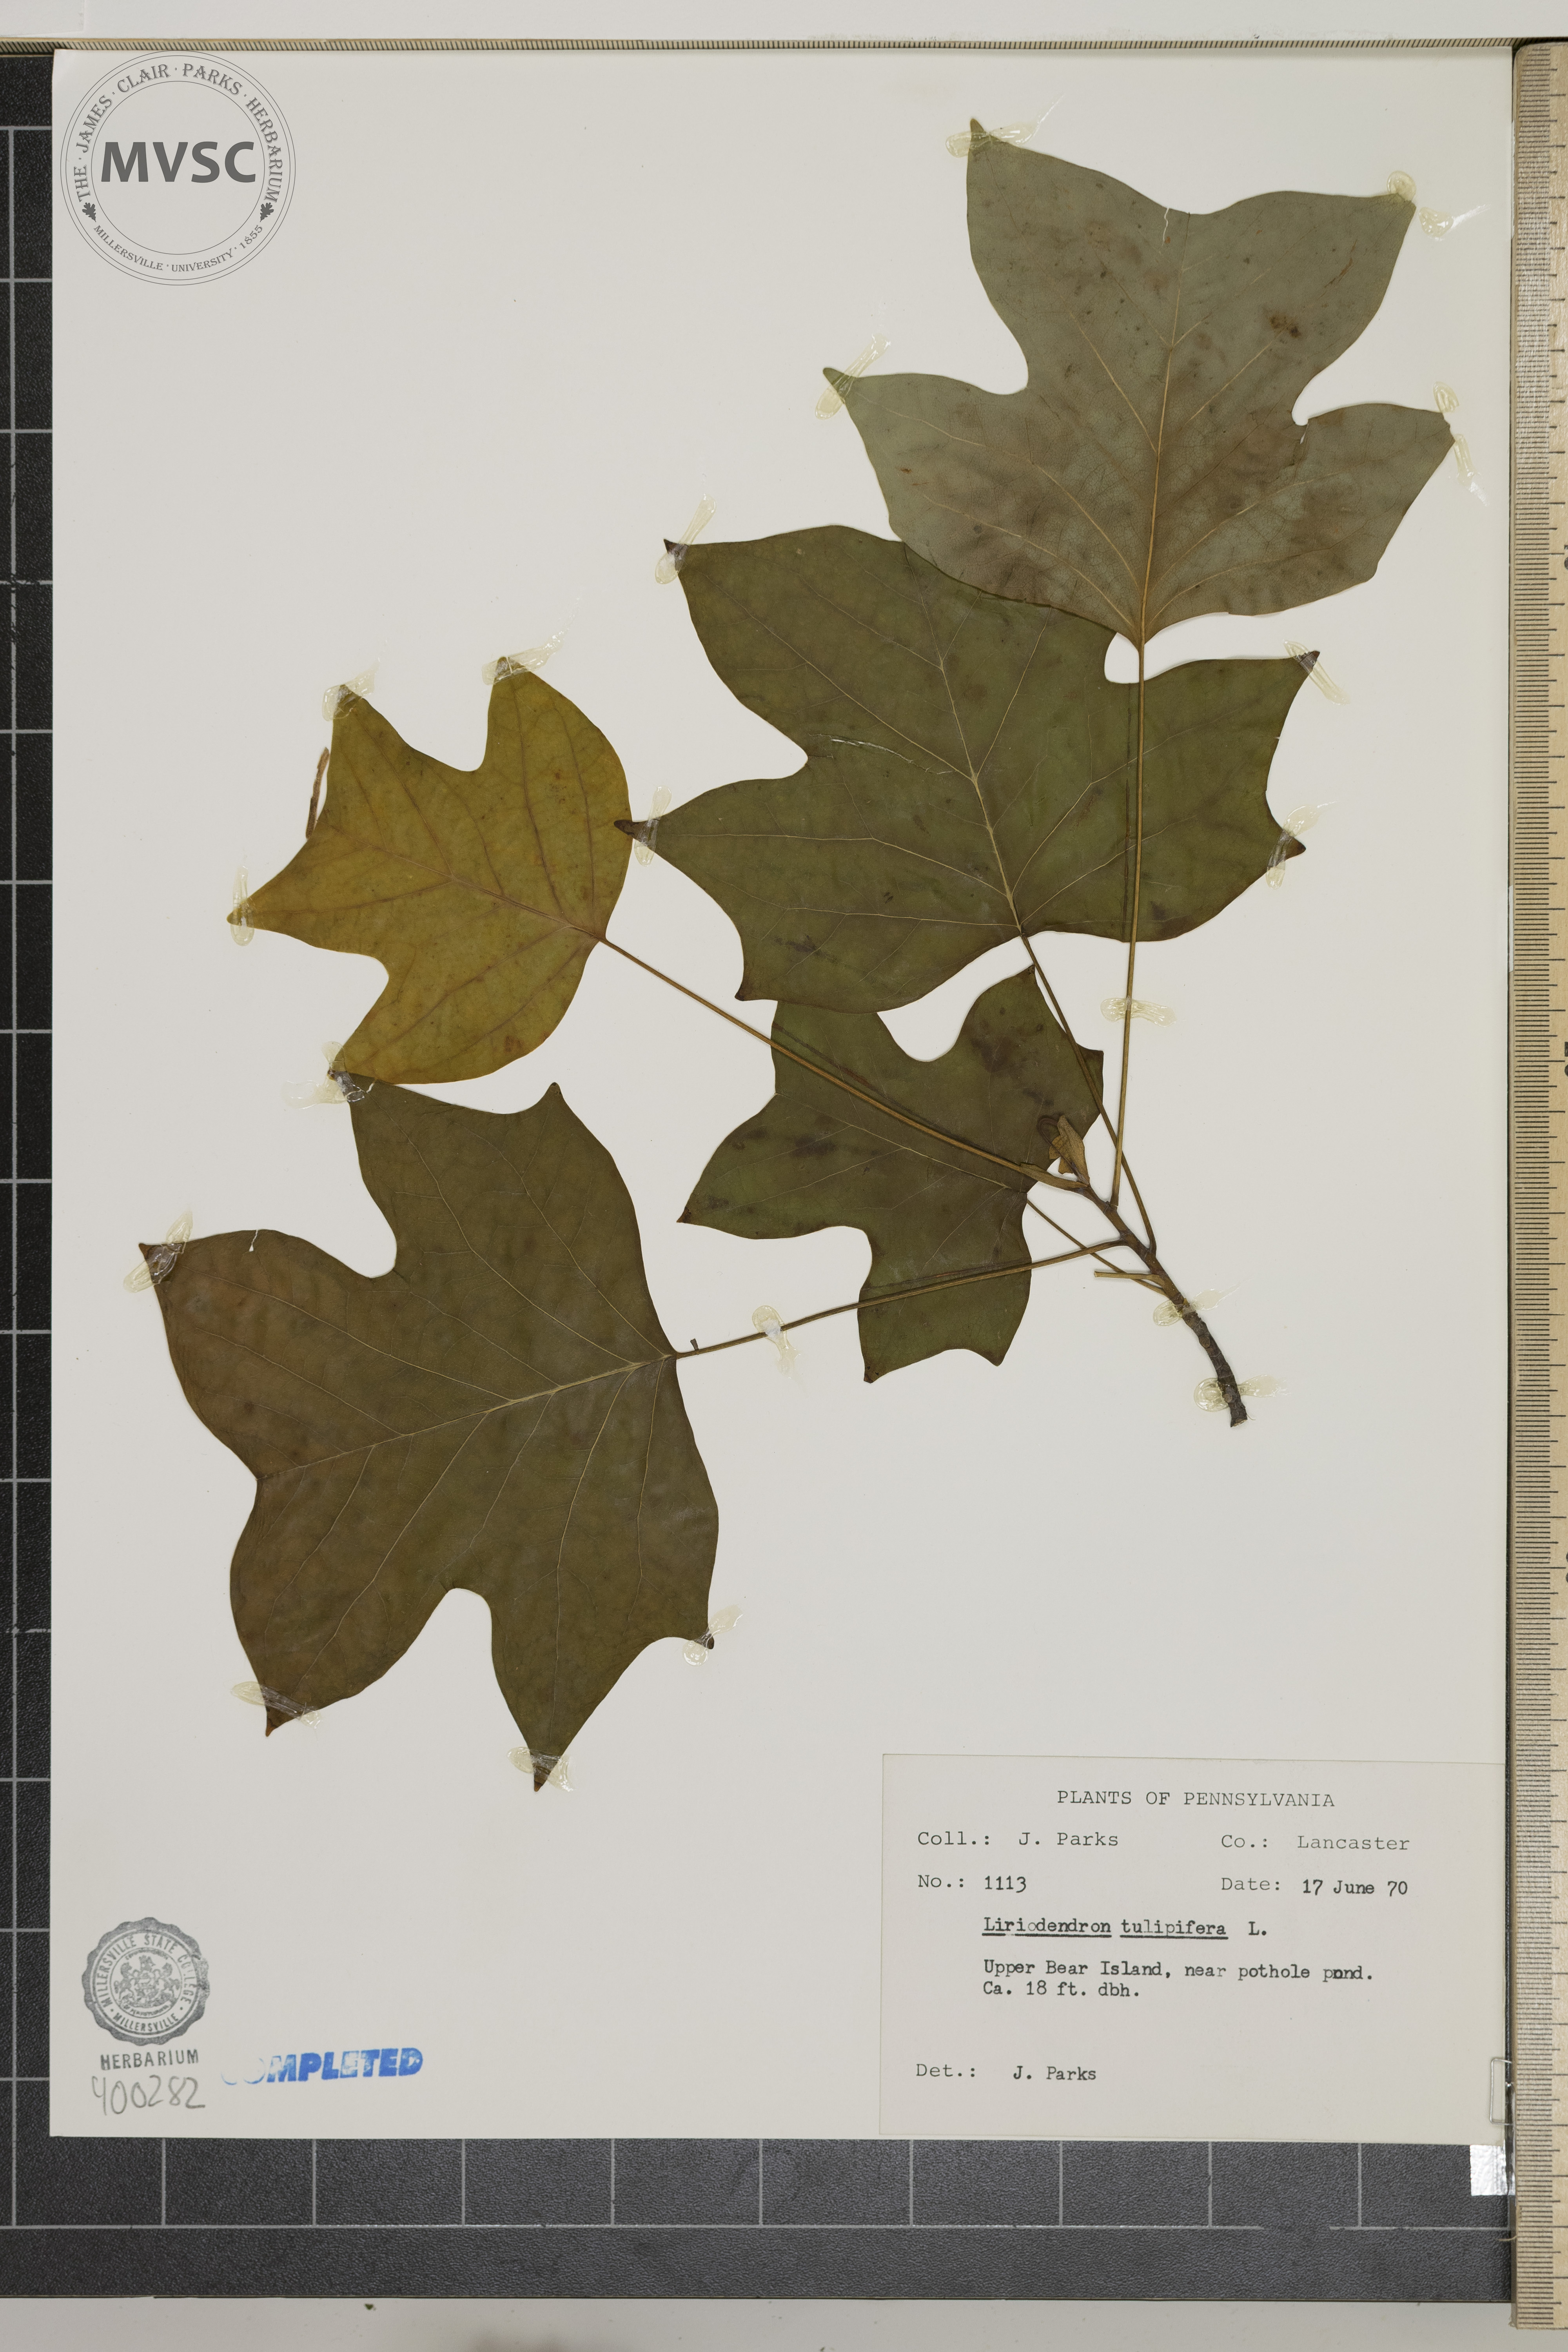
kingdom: Plantae
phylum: Tracheophyta
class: Magnoliopsida
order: Magnoliales
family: Magnoliaceae
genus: Liriodendron
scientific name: Liriodendron tulipifera
